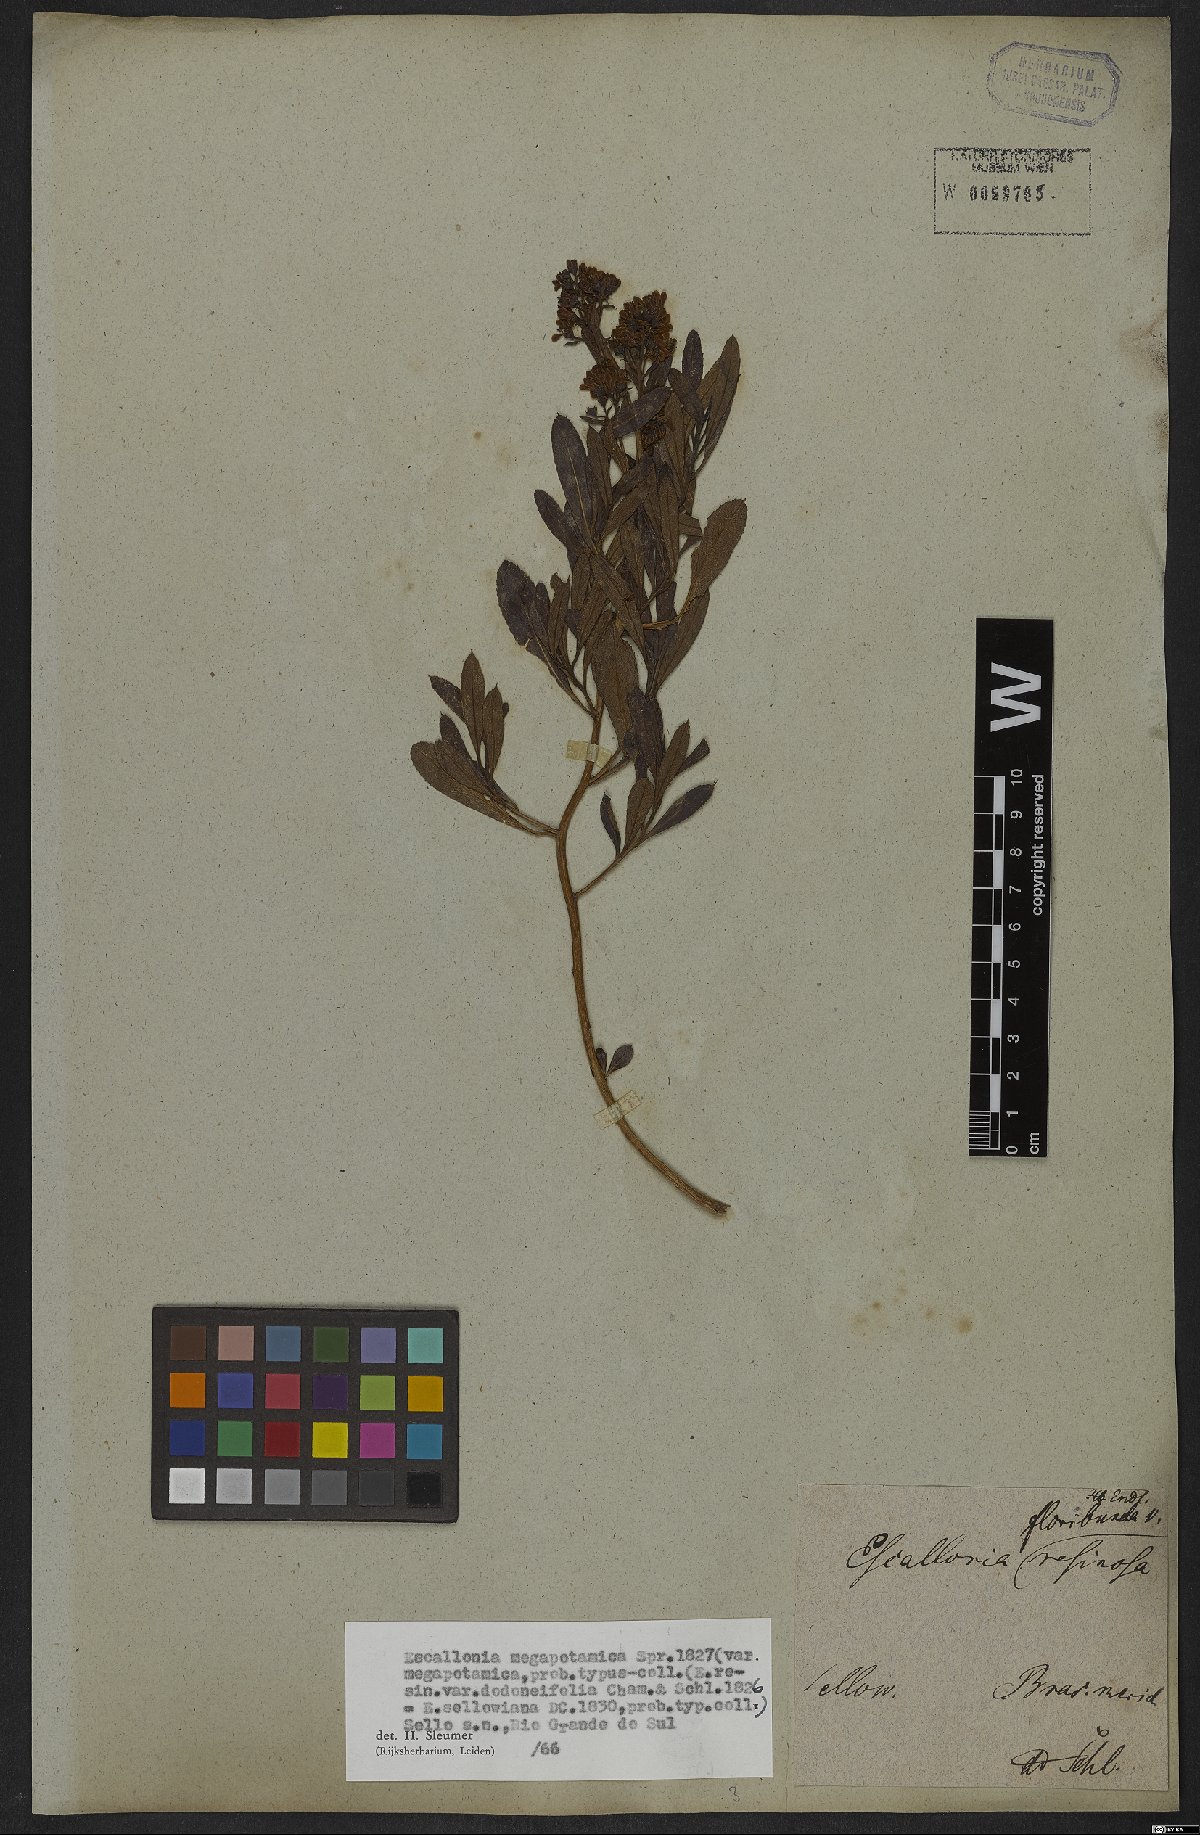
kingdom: Plantae
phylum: Tracheophyta
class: Magnoliopsida
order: Escalloniales
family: Escalloniaceae
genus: Escallonia
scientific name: Escallonia megapotamica
